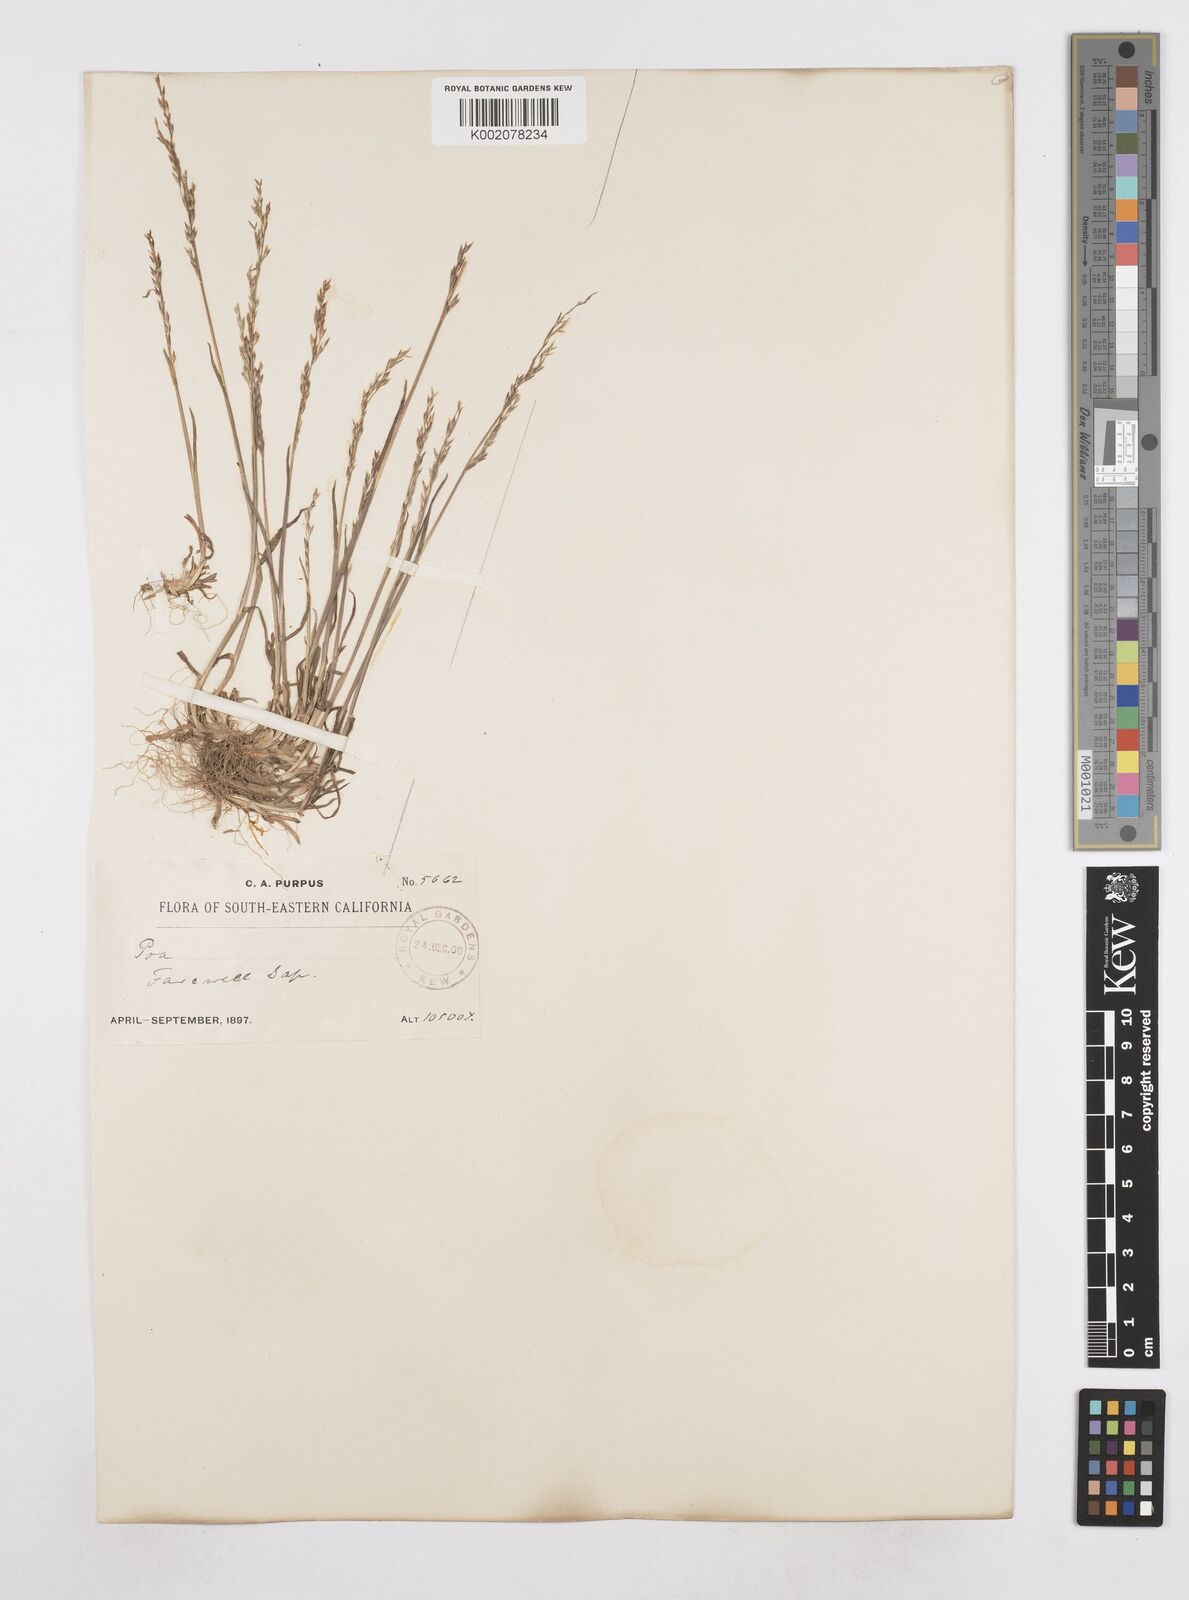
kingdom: Plantae
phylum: Tracheophyta
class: Liliopsida
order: Poales
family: Poaceae
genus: Poa
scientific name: Poa
